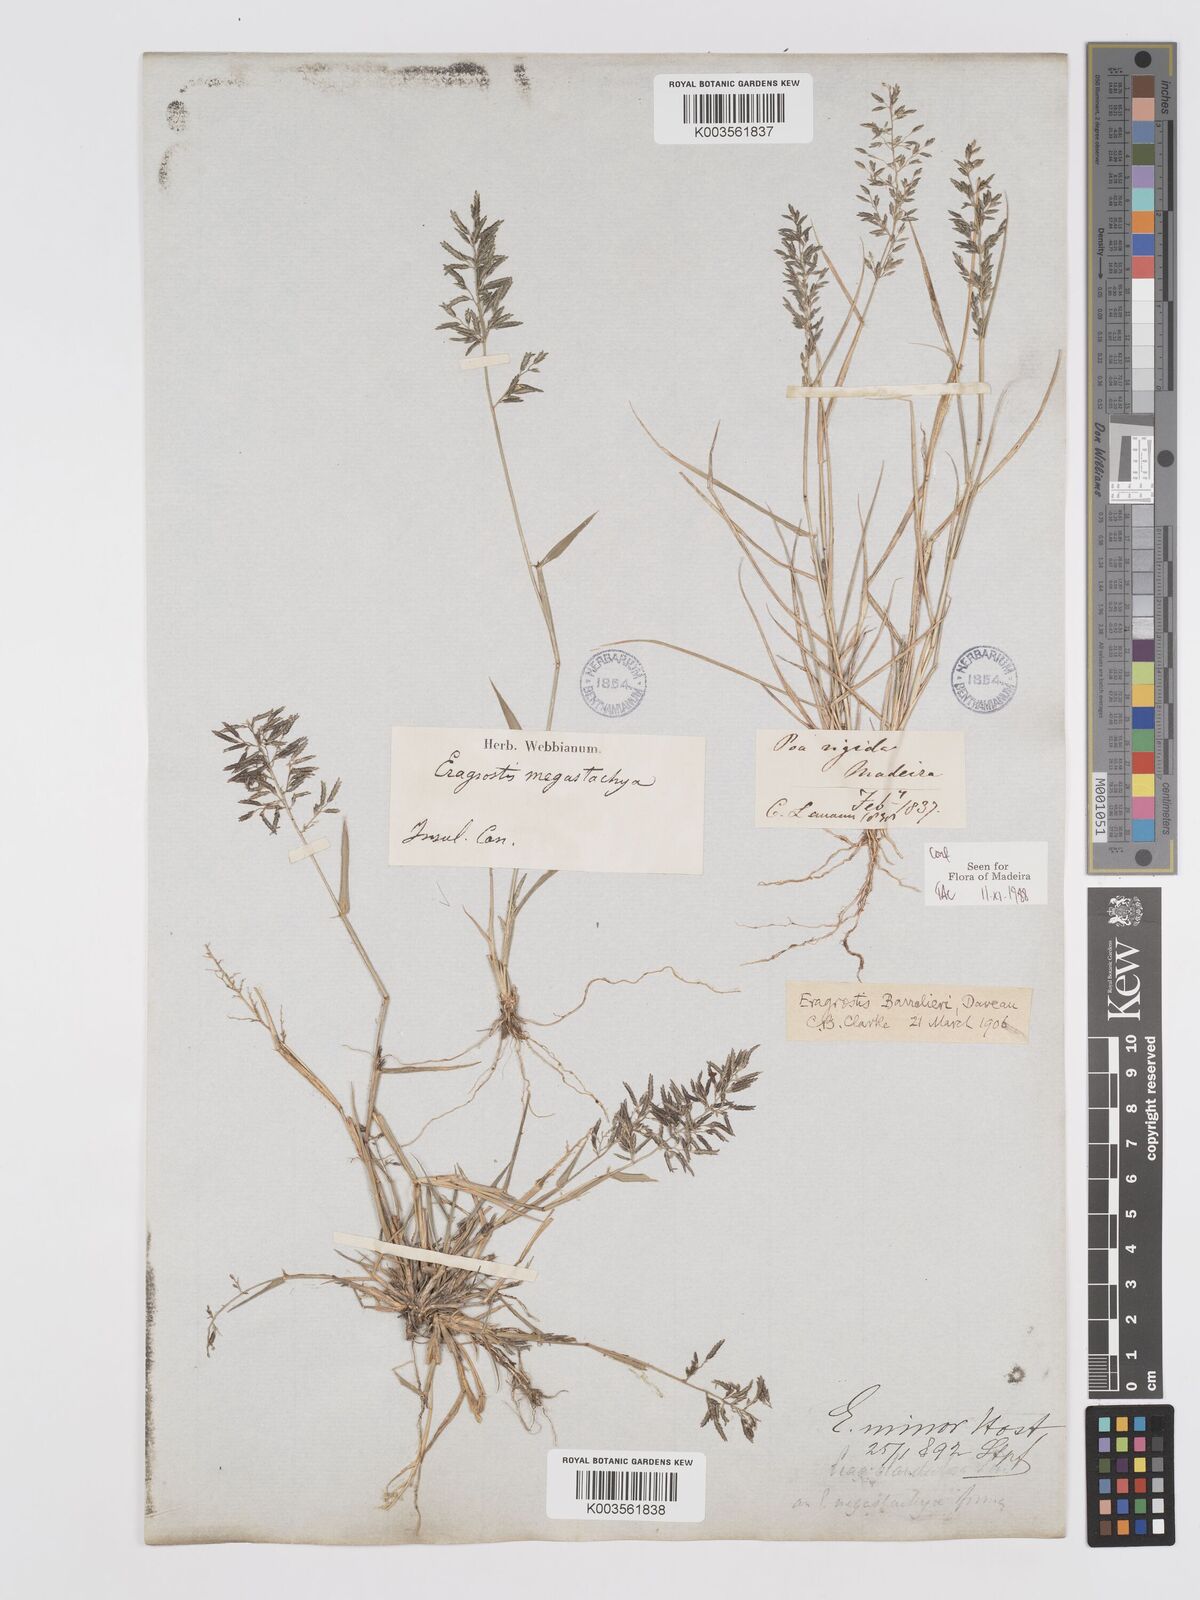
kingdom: Plantae
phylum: Tracheophyta
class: Liliopsida
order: Poales
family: Poaceae
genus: Eragrostis
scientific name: Eragrostis barrelieri
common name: Mediterranean lovegrass
